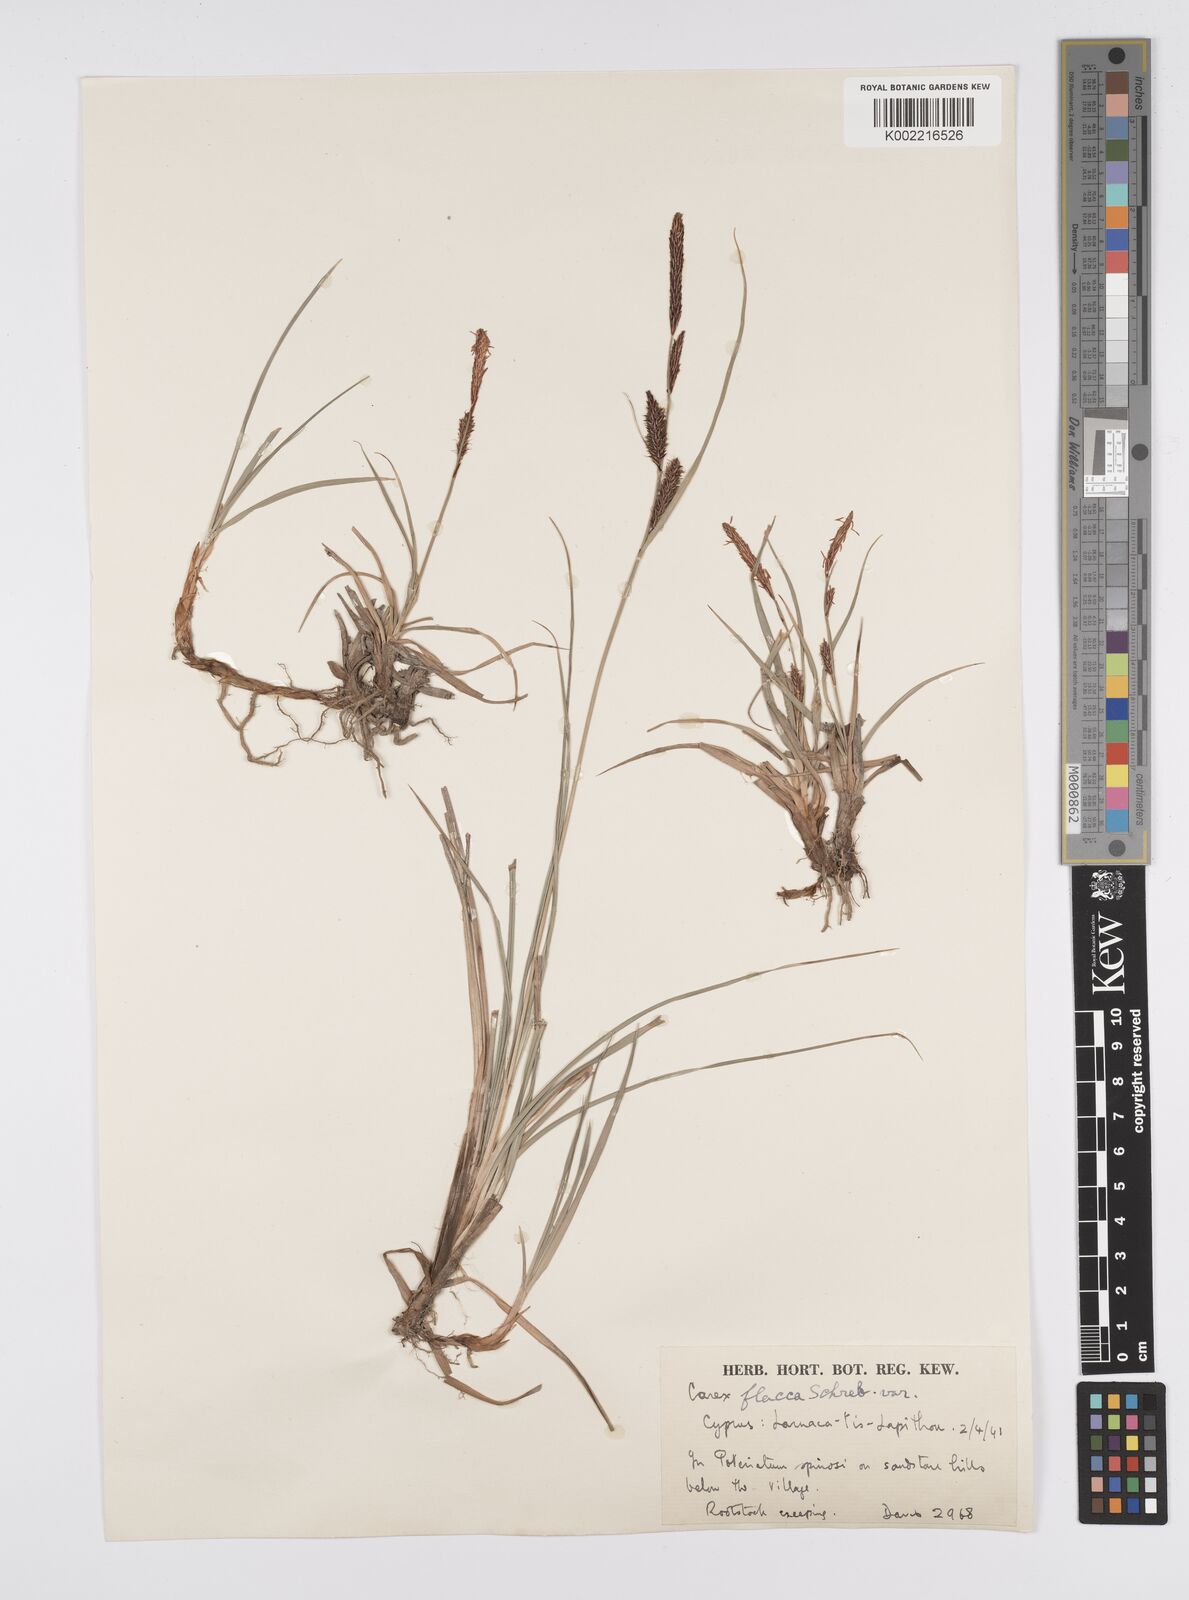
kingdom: Plantae
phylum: Tracheophyta
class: Liliopsida
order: Poales
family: Cyperaceae
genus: Carex
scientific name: Carex flacca
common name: Glaucous sedge
